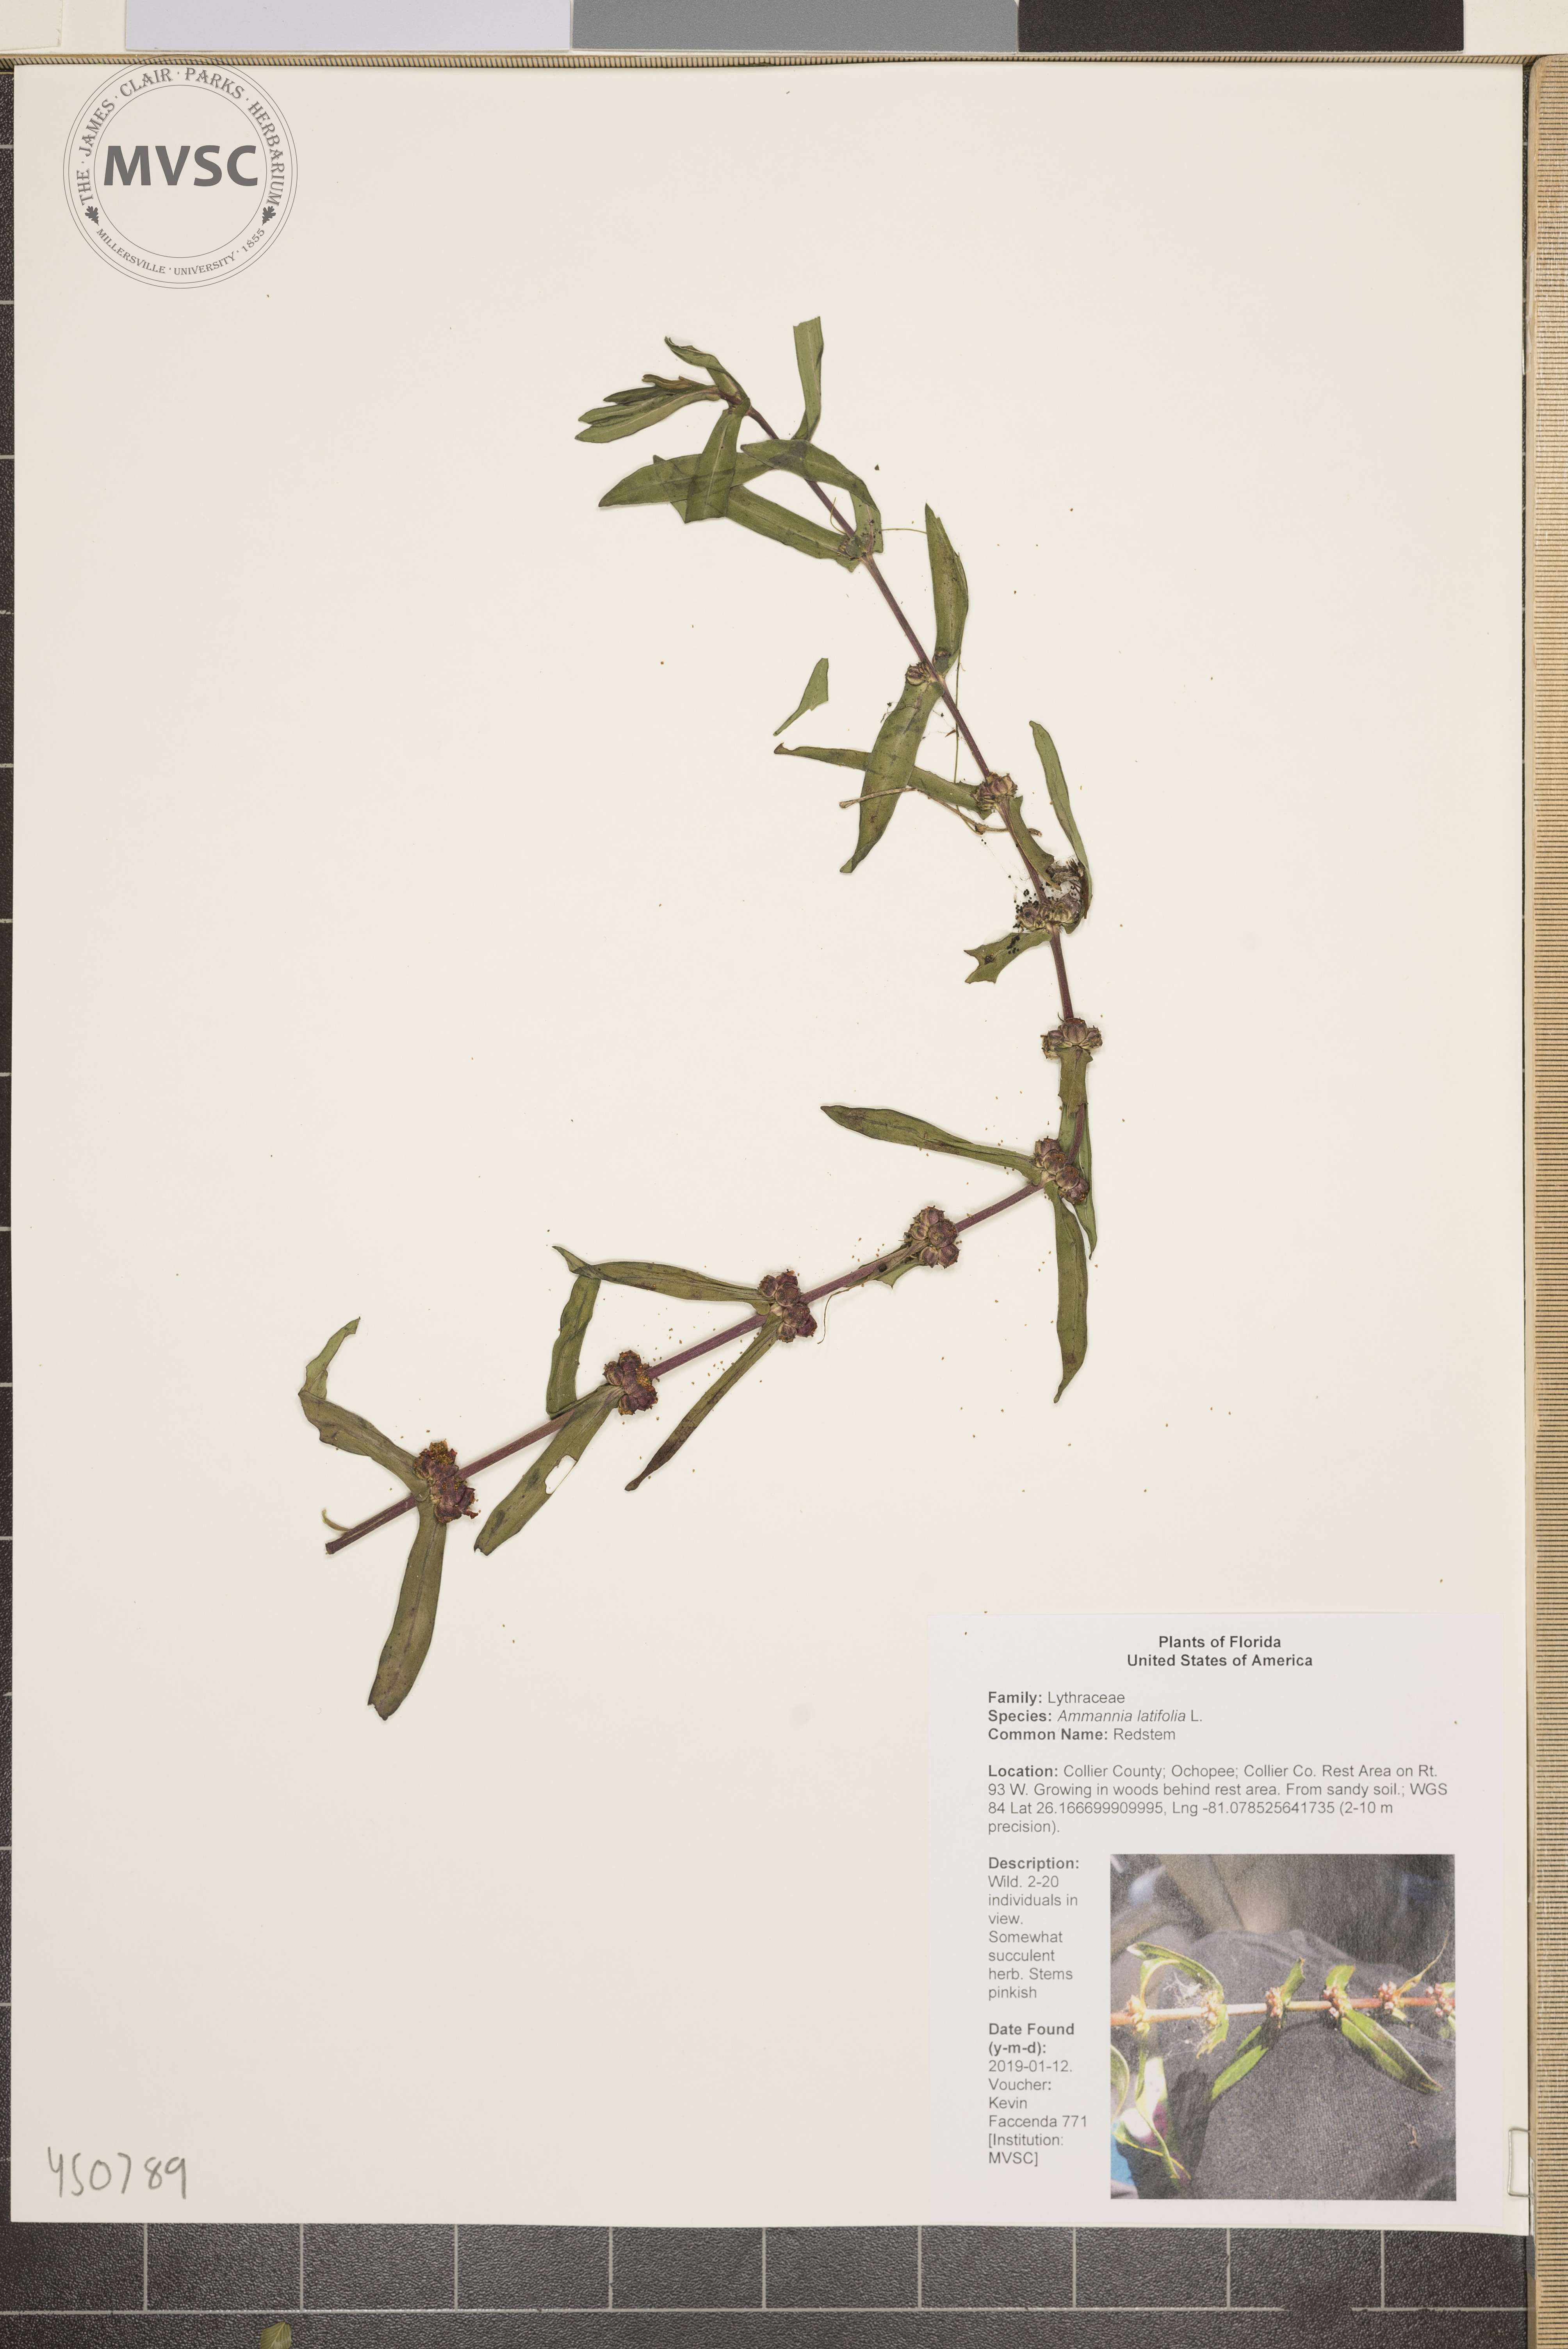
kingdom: Plantae
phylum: Tracheophyta
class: Magnoliopsida
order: Myrtales
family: Lythraceae
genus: Ammannia
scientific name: Ammannia latifolia
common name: Redstem
